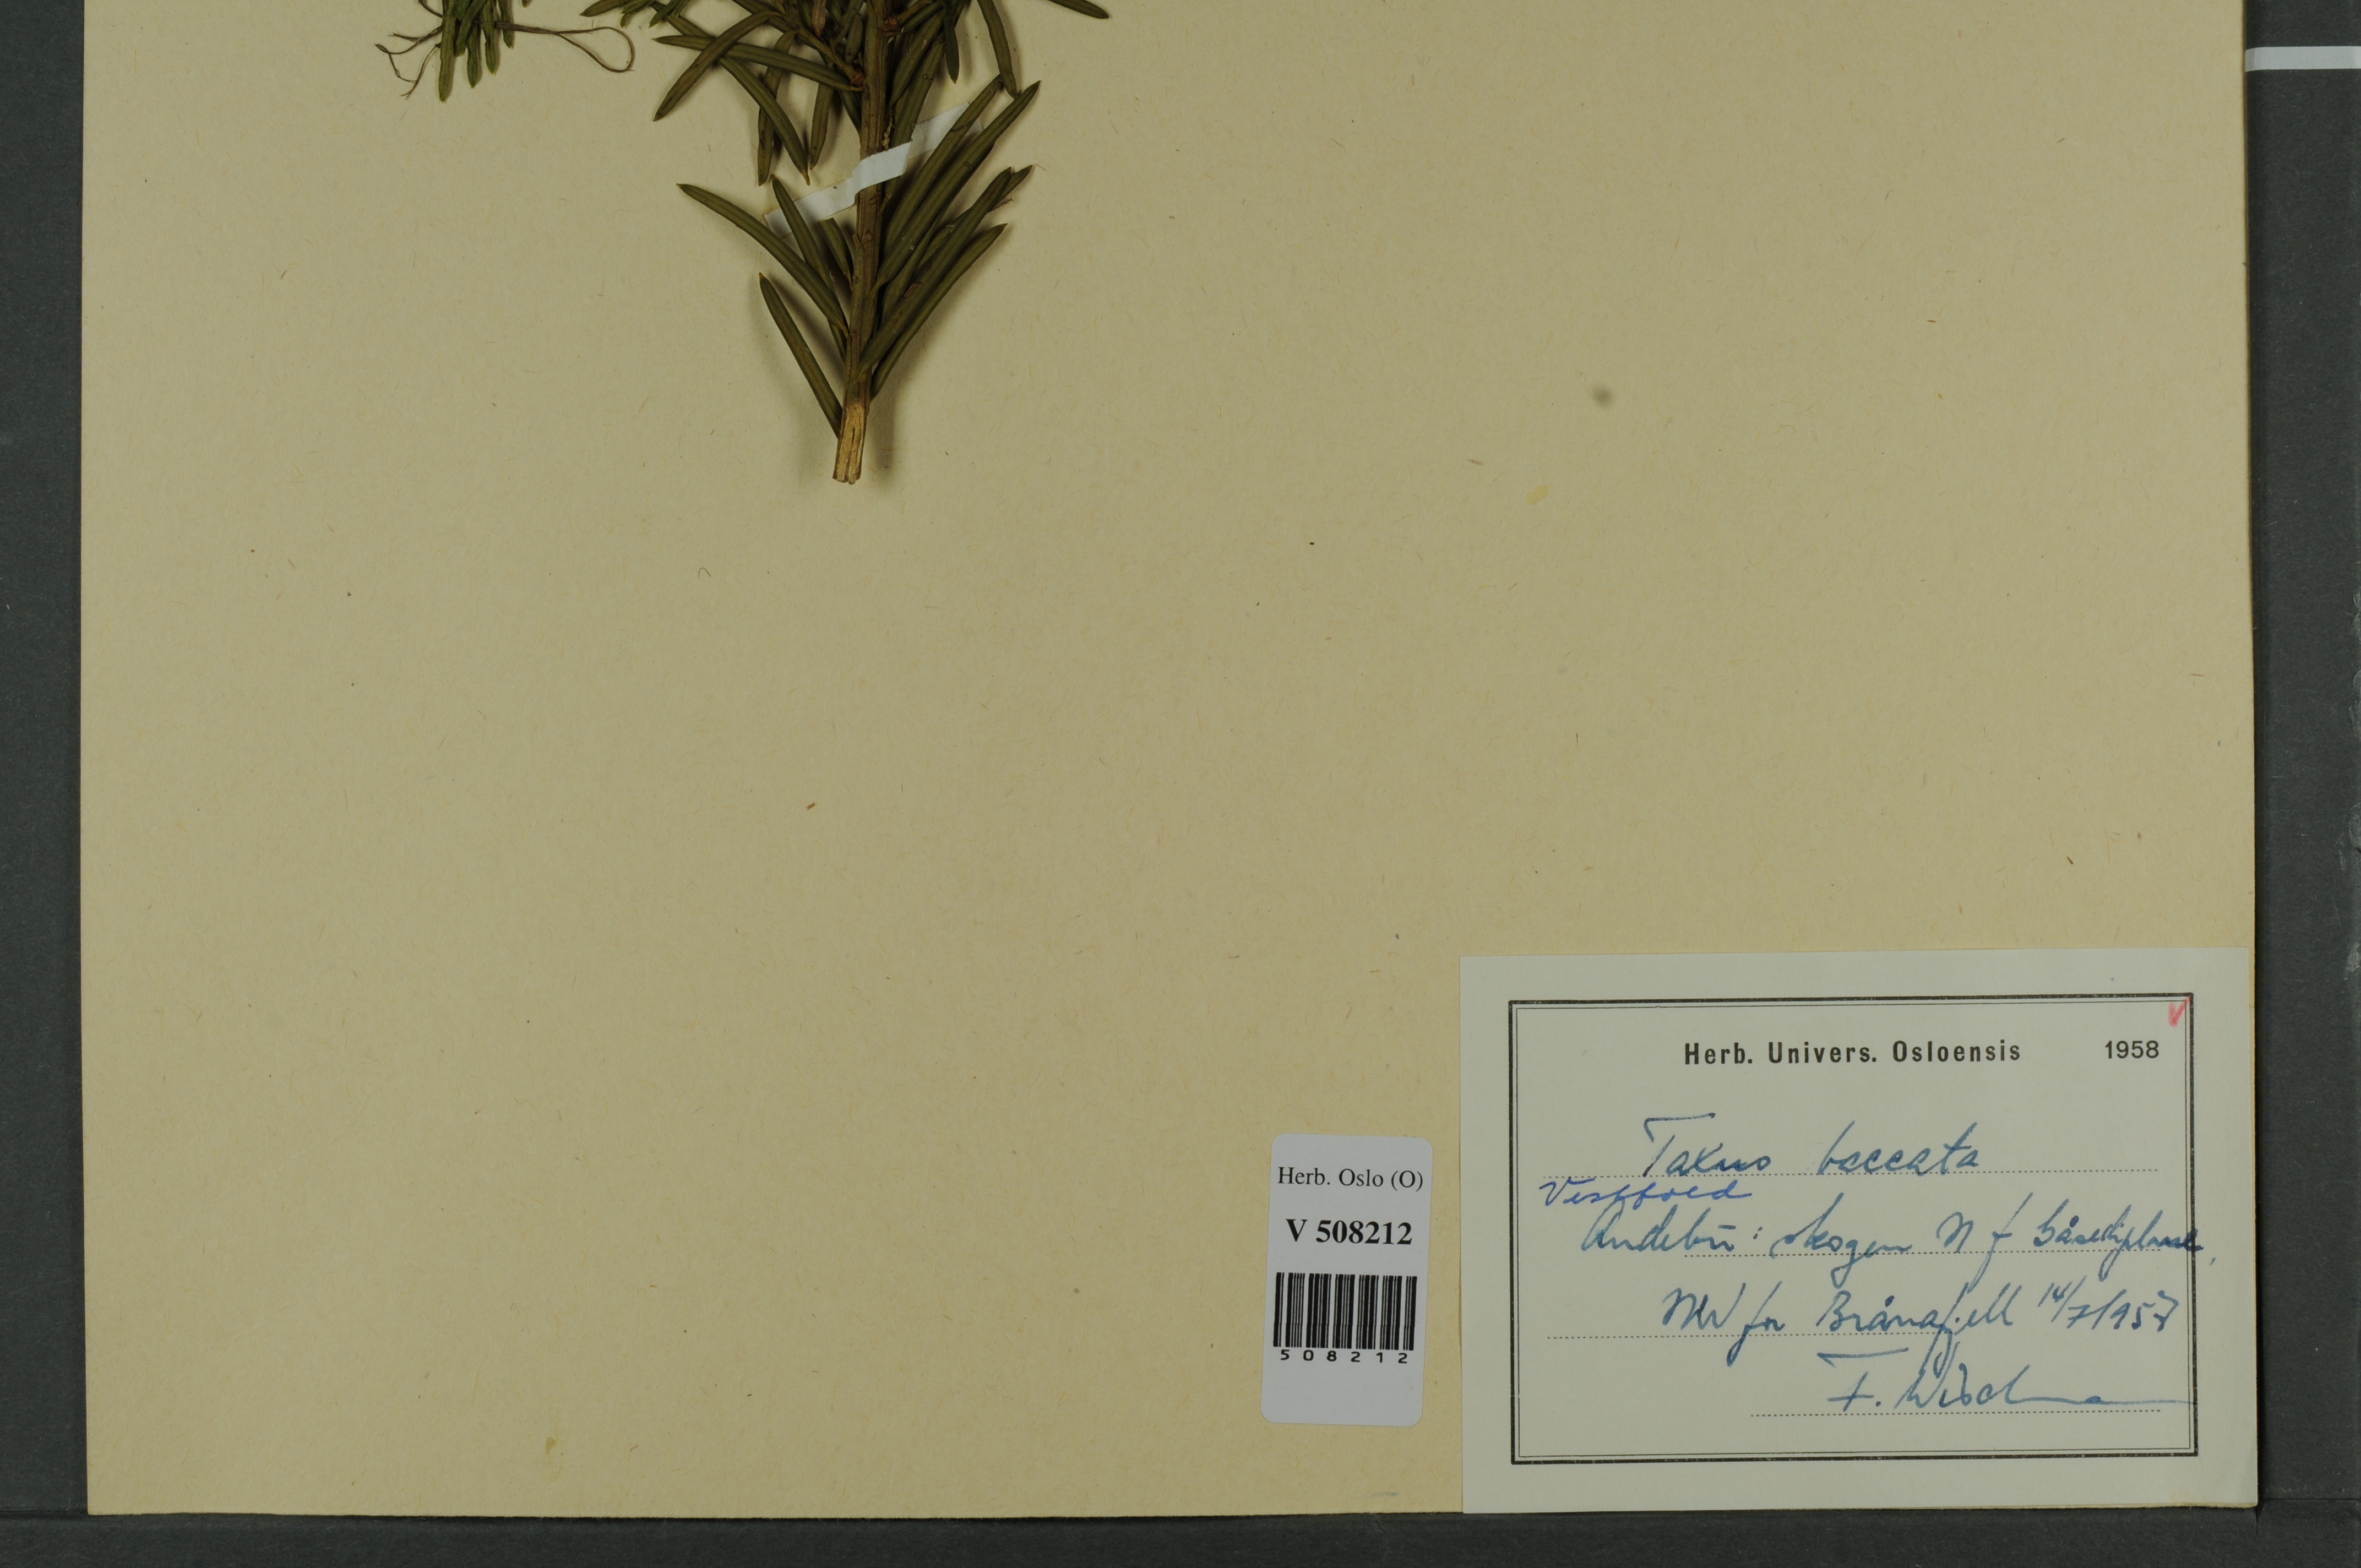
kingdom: Plantae
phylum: Tracheophyta
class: Pinopsida
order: Pinales
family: Taxaceae
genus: Taxus
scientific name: Taxus baccata
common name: Yew
